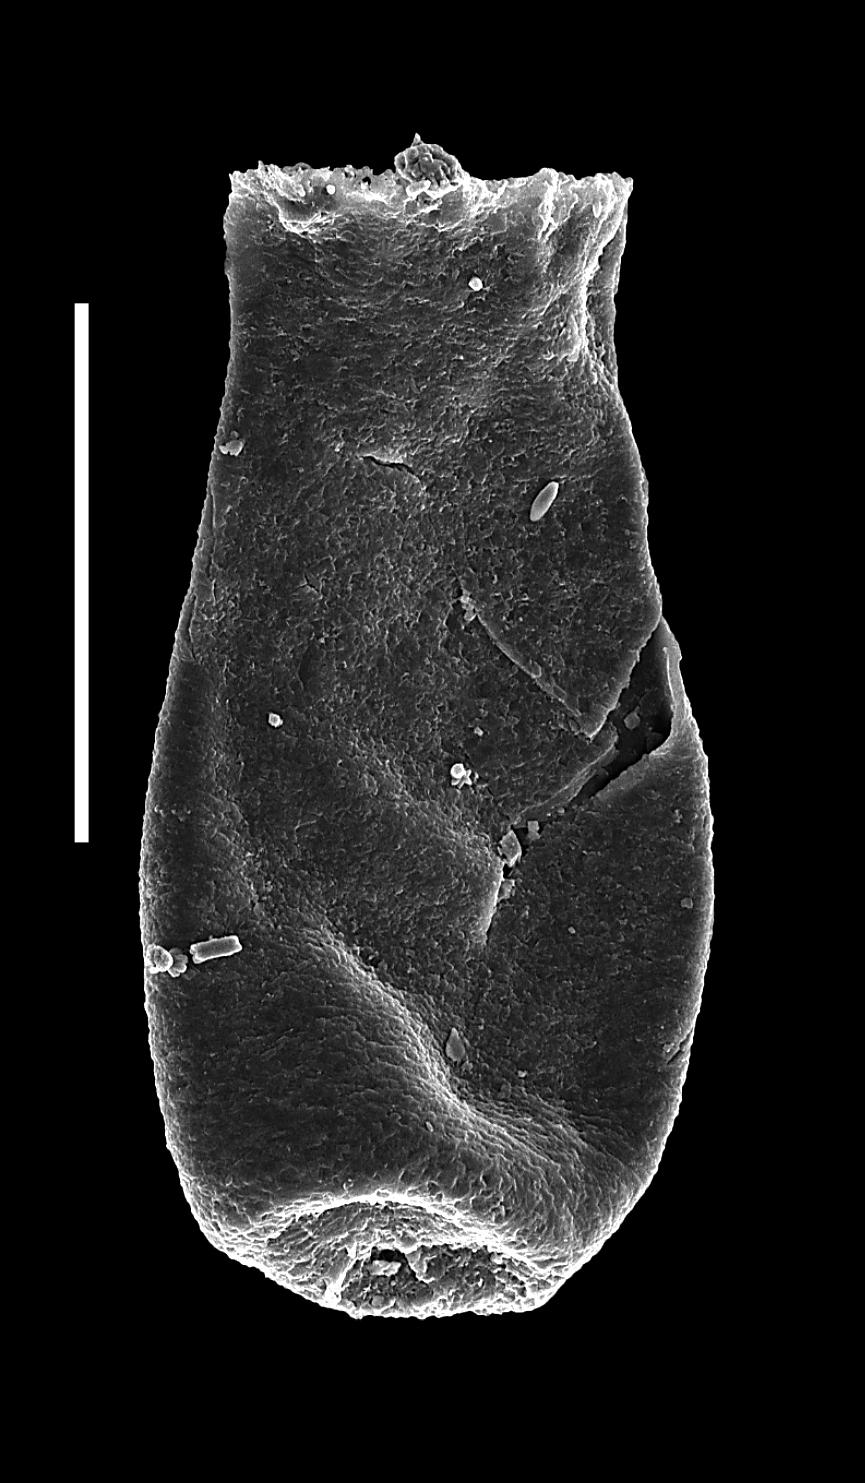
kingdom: Animalia
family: Conochitinidae
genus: Conochitina
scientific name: Conochitina
